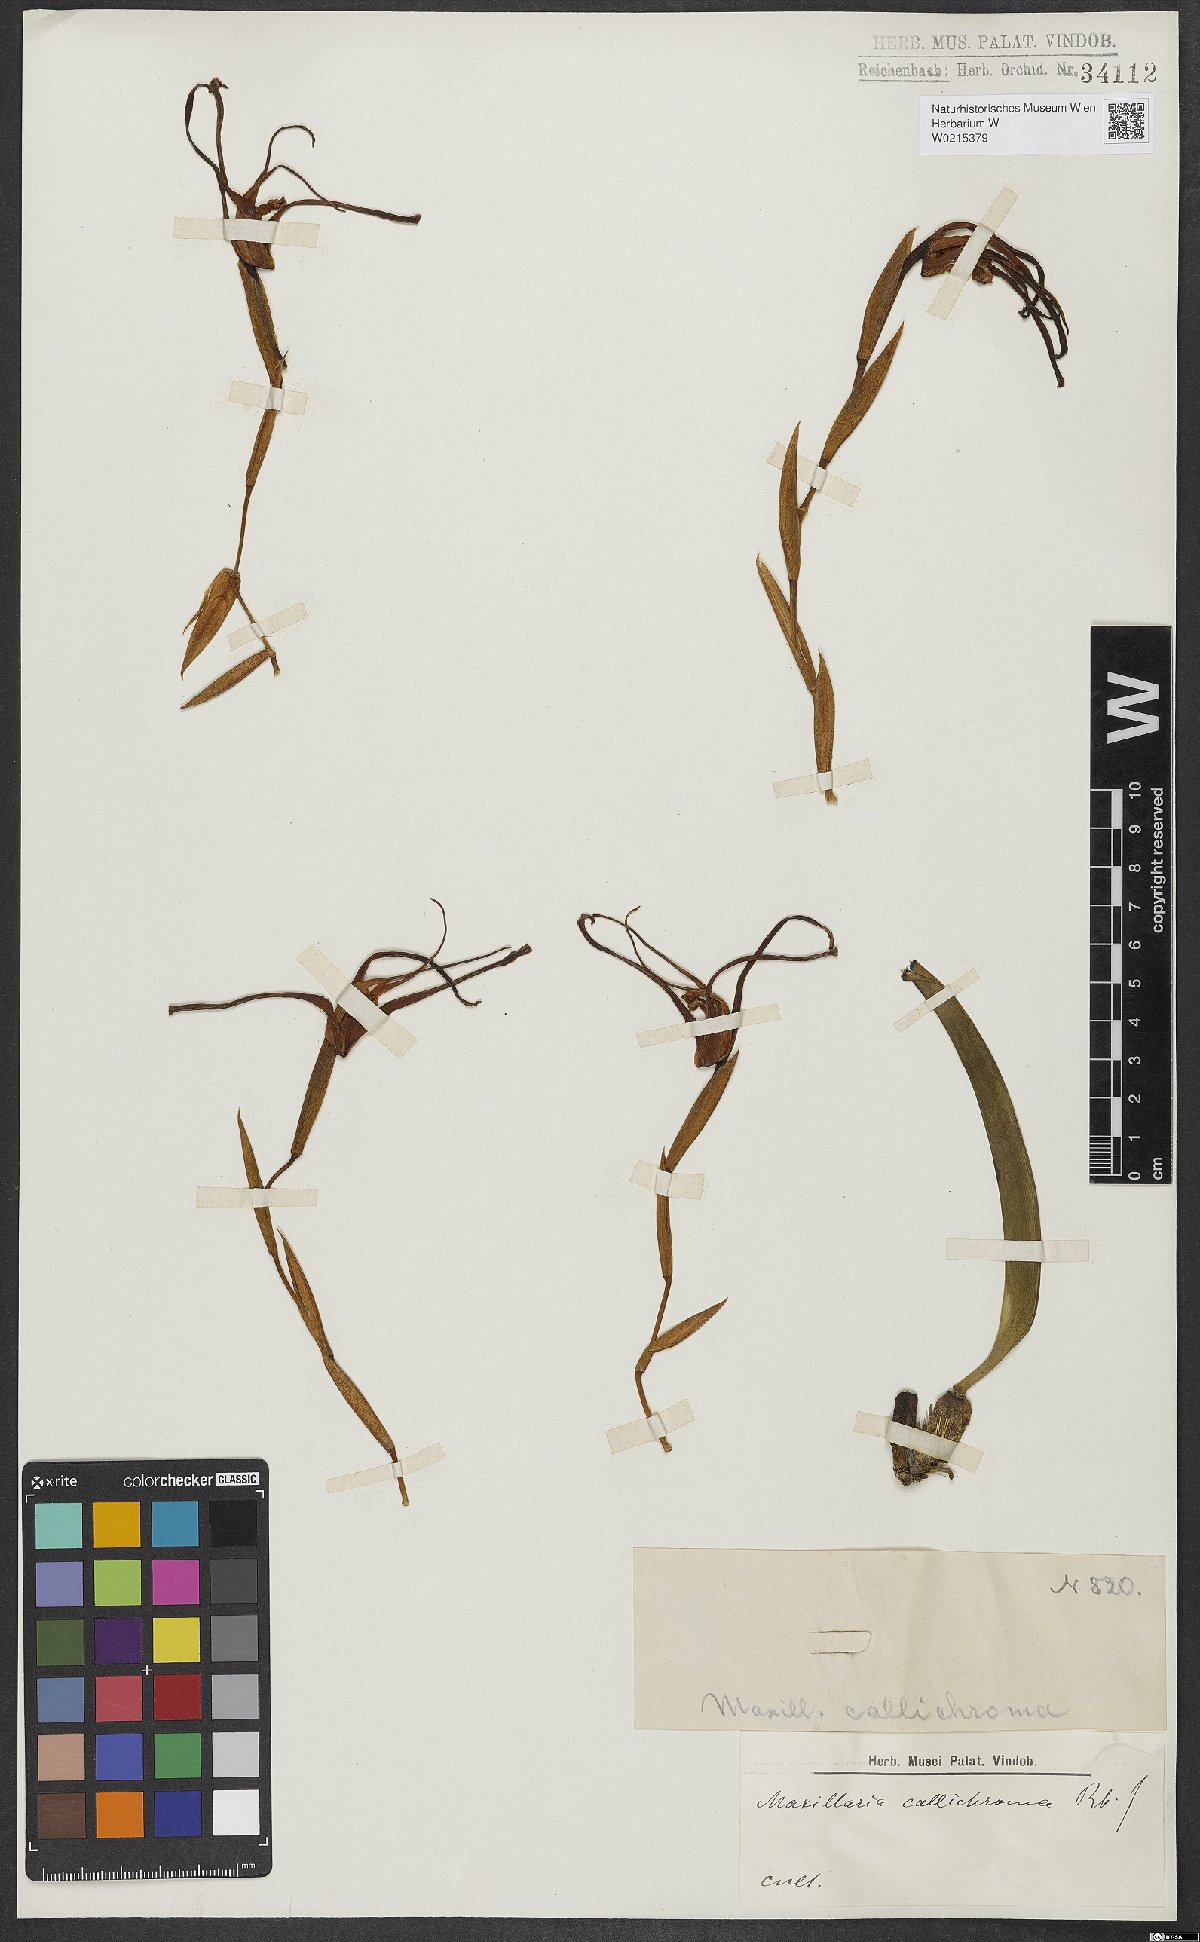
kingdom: Plantae
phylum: Tracheophyta
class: Liliopsida
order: Asparagales
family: Orchidaceae
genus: Maxillaria
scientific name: Maxillaria callichroma
